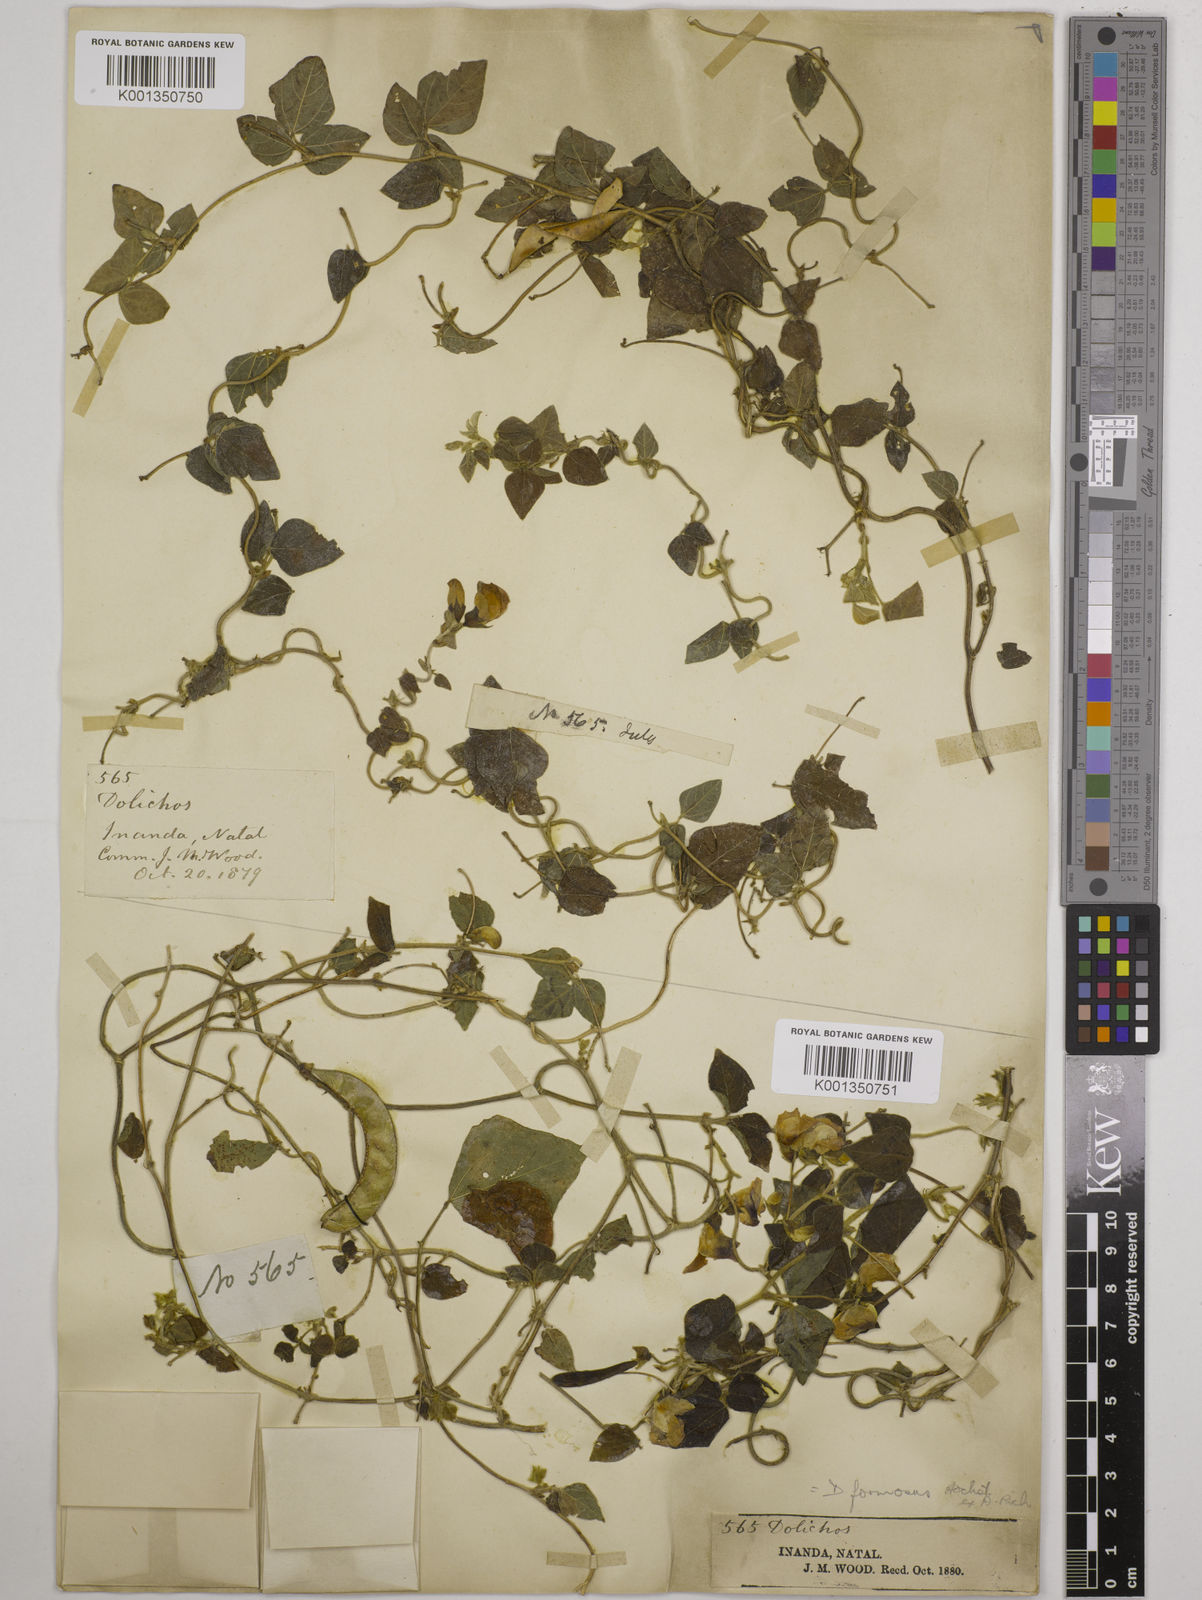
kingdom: Plantae
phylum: Tracheophyta
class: Magnoliopsida
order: Fabales
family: Fabaceae
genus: Dolichos
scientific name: Dolichos sericeus
